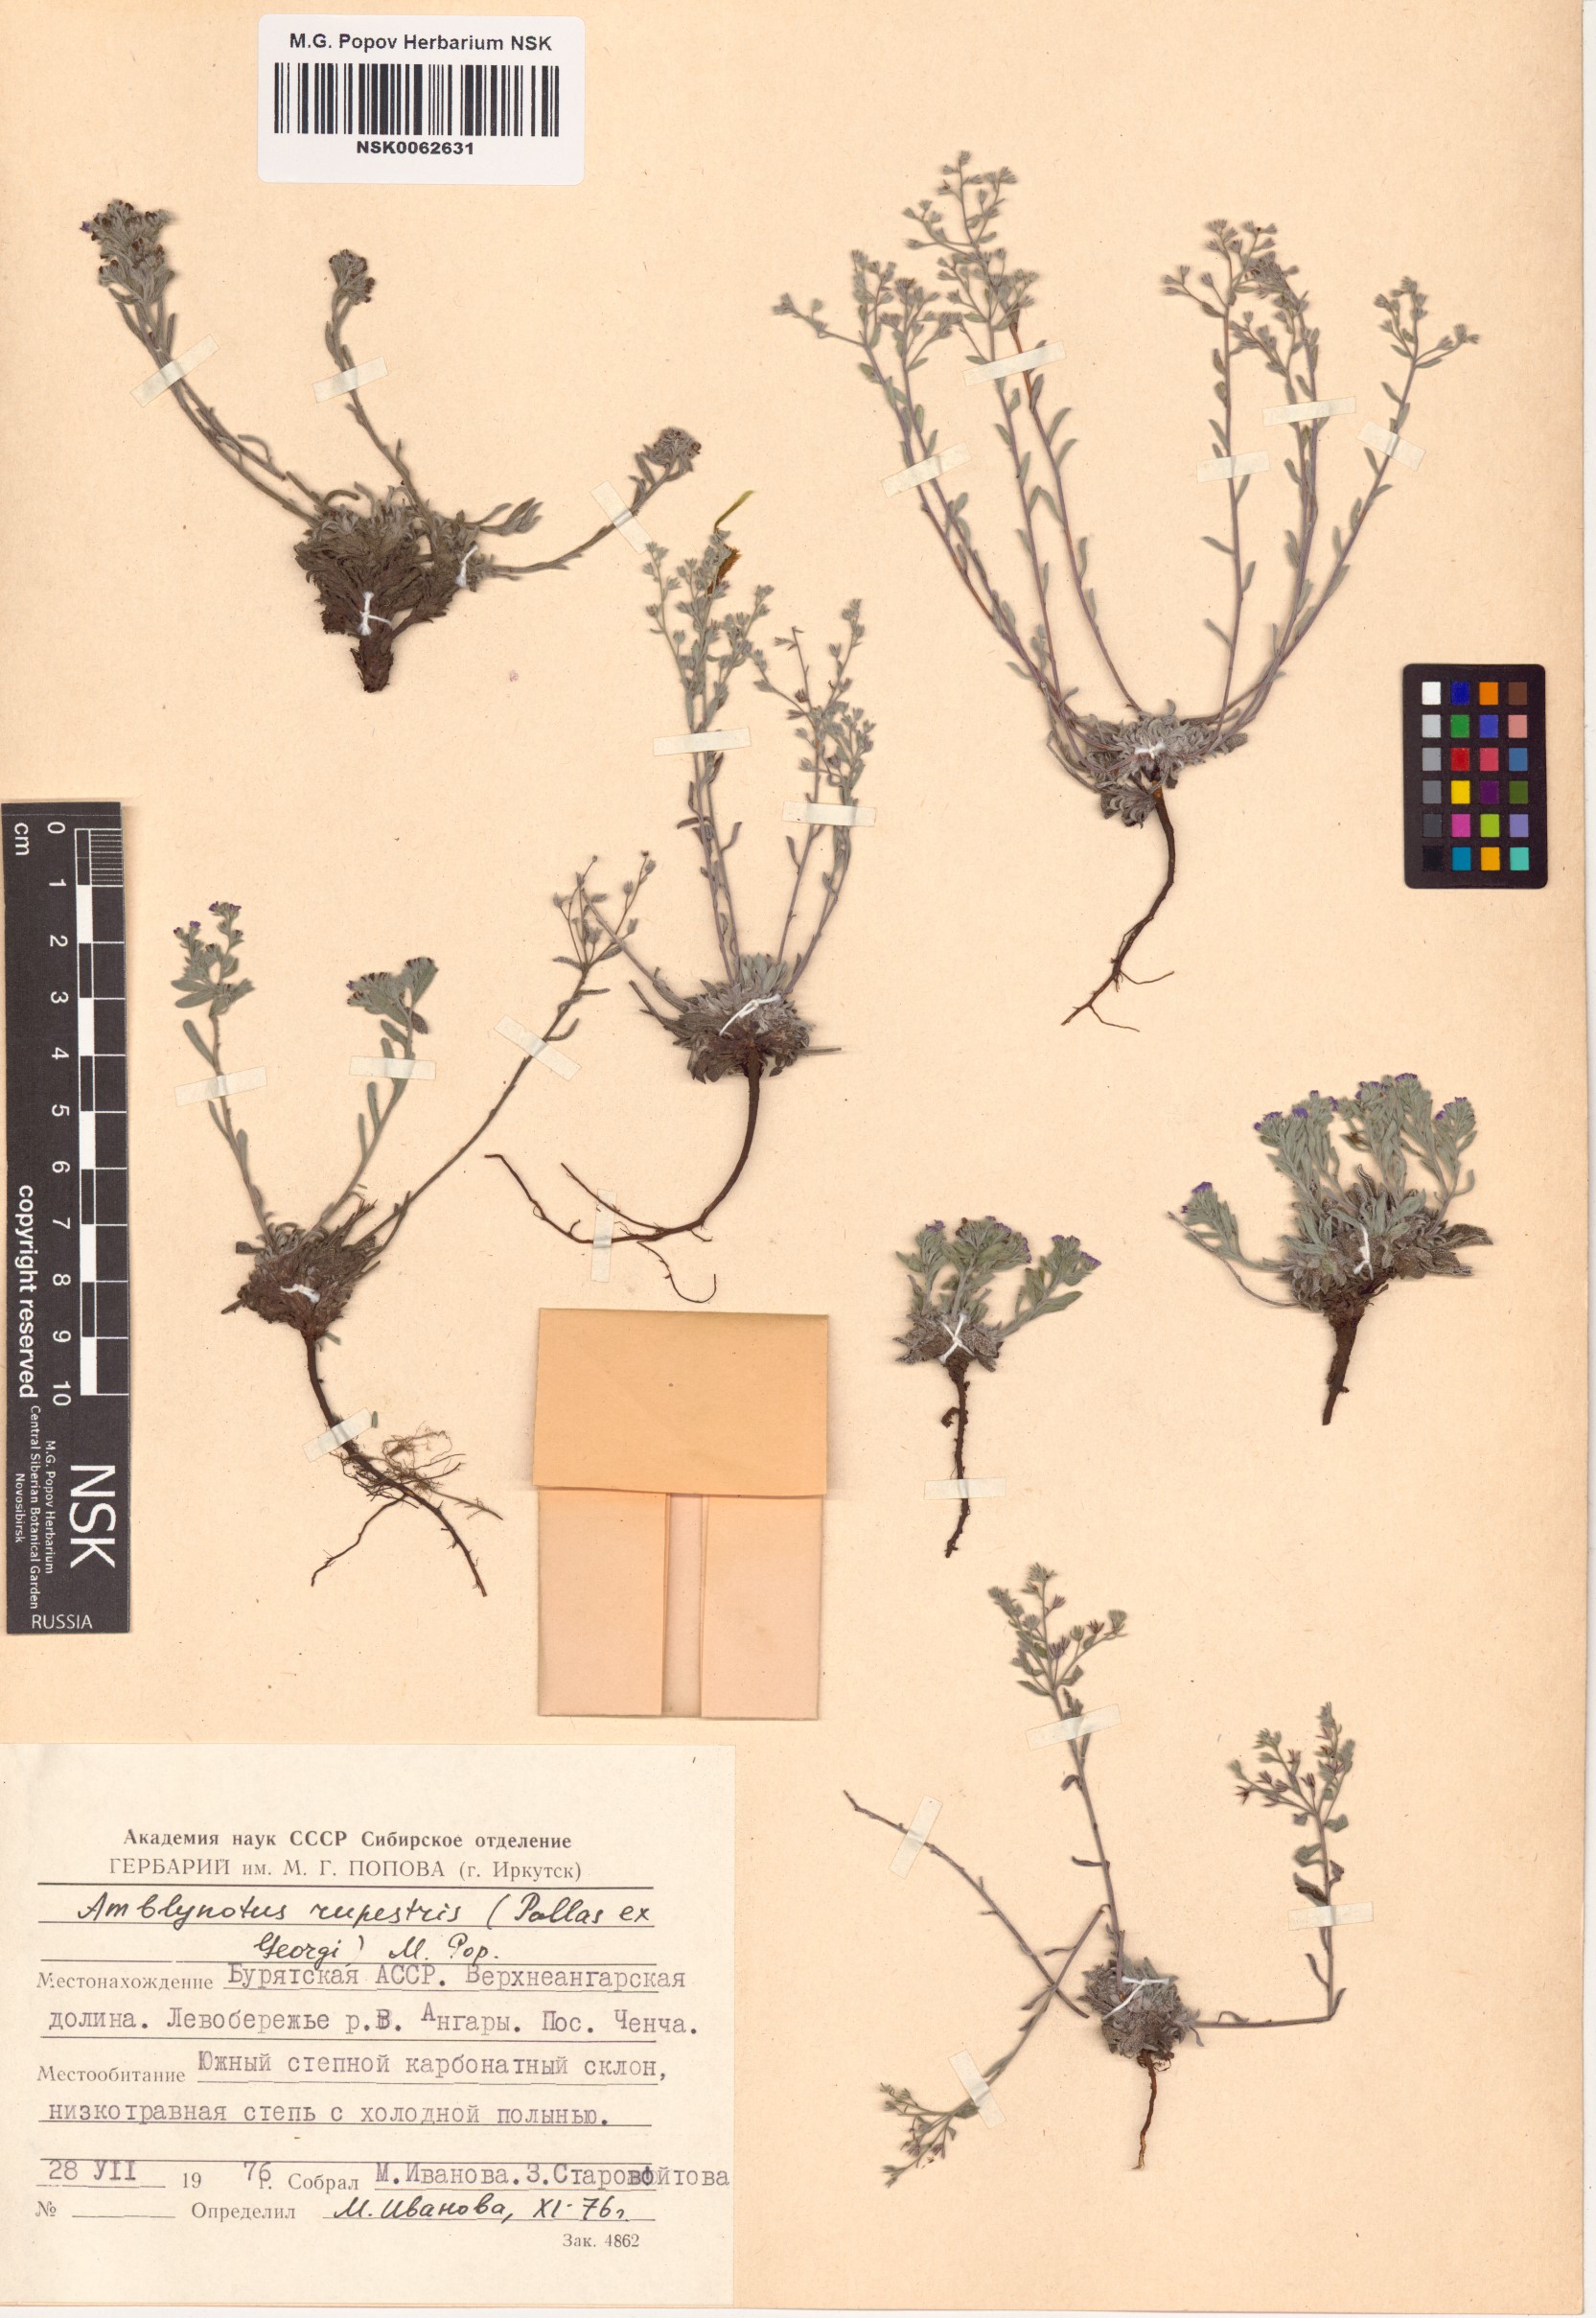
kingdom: Plantae
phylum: Tracheophyta
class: Magnoliopsida
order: Boraginales
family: Boraginaceae
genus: Eritrichium
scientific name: Eritrichium rupestre
